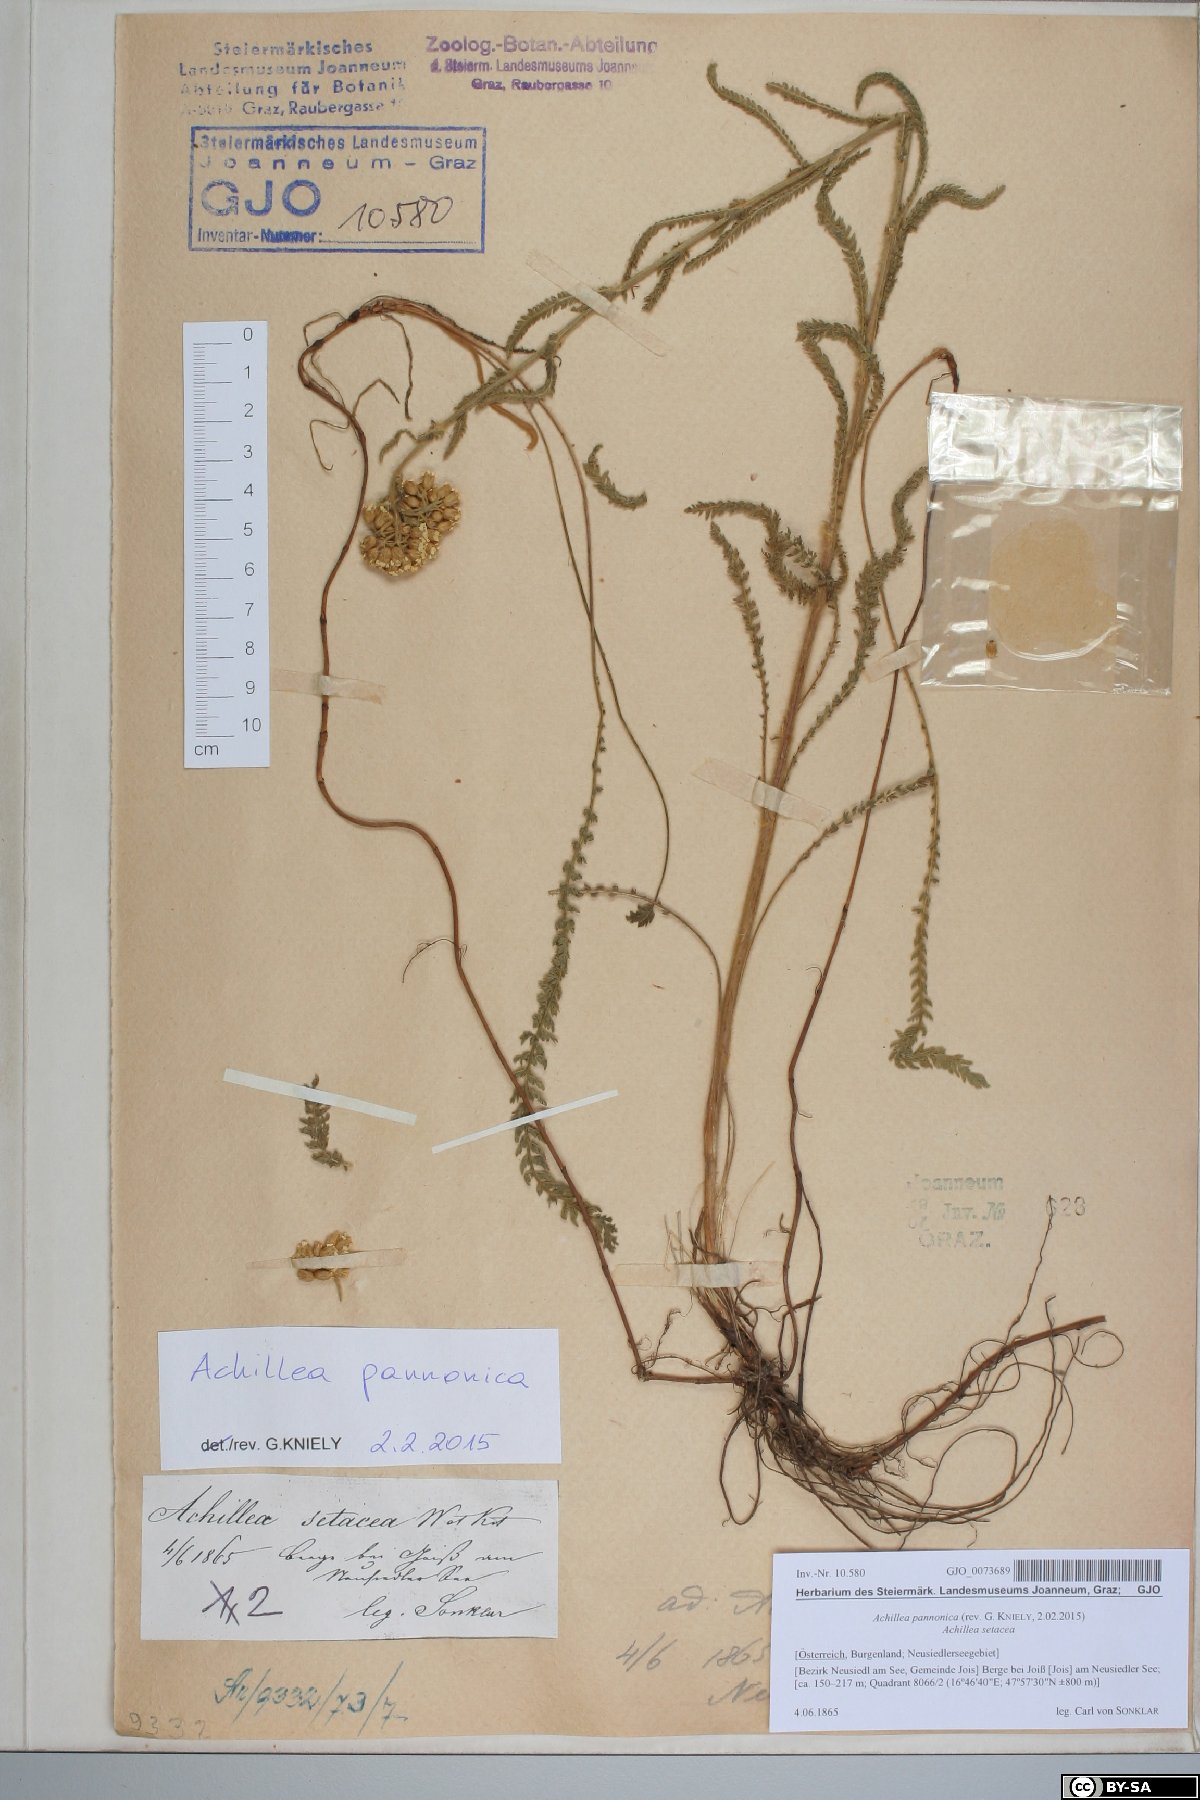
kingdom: Plantae
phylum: Tracheophyta
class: Magnoliopsida
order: Asterales
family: Asteraceae
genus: Achillea
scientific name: Achillea pannonica
